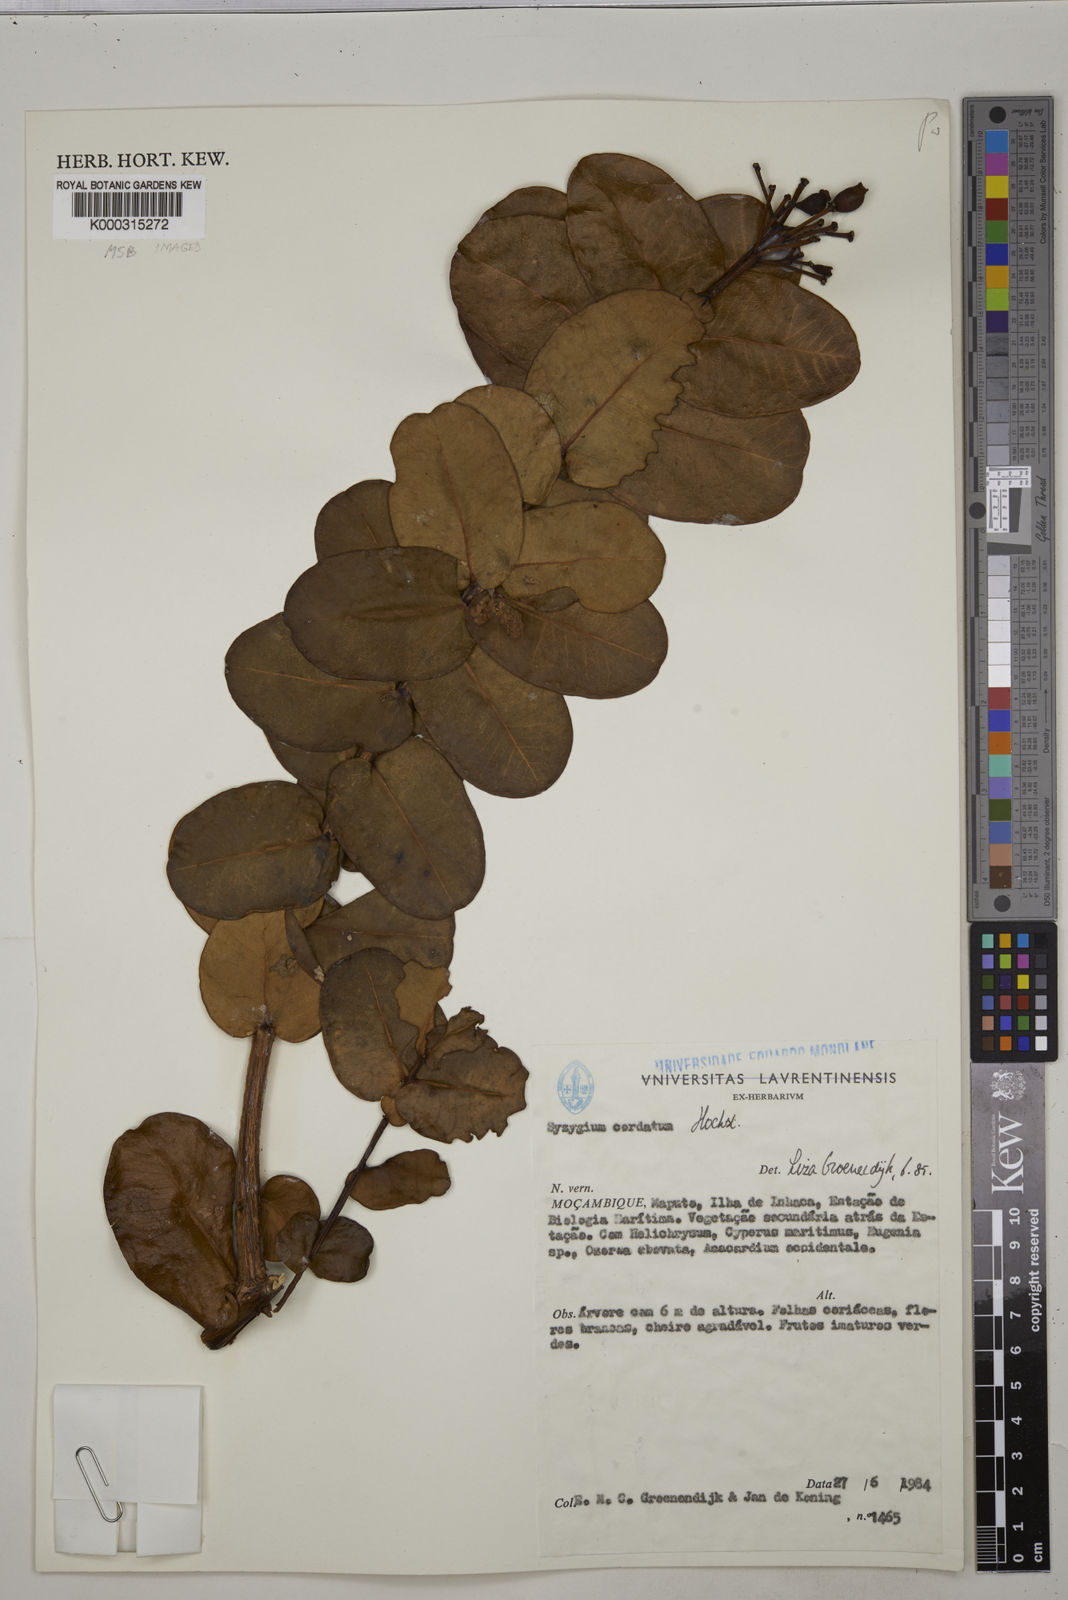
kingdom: Plantae
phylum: Tracheophyta
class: Magnoliopsida
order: Myrtales
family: Myrtaceae
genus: Syzygium
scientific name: Syzygium cordatum
